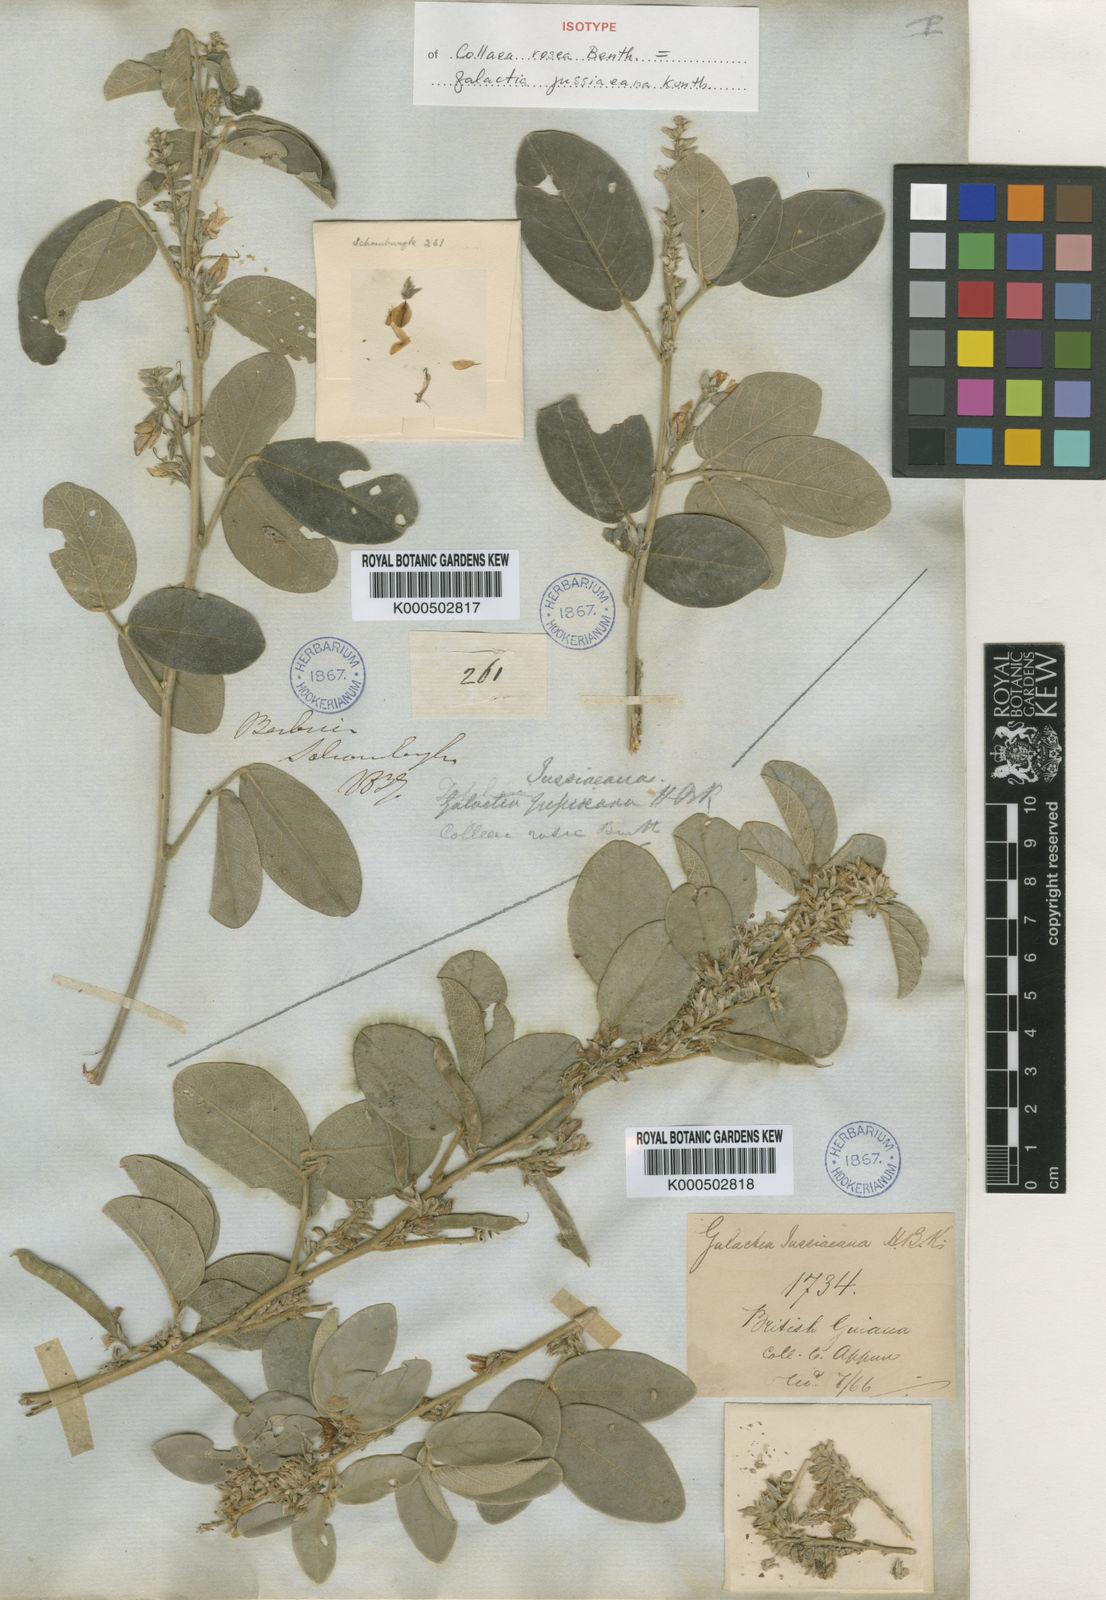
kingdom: Plantae
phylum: Tracheophyta
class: Magnoliopsida
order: Fabales
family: Fabaceae
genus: Galactia
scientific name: Galactia jussiaeana
